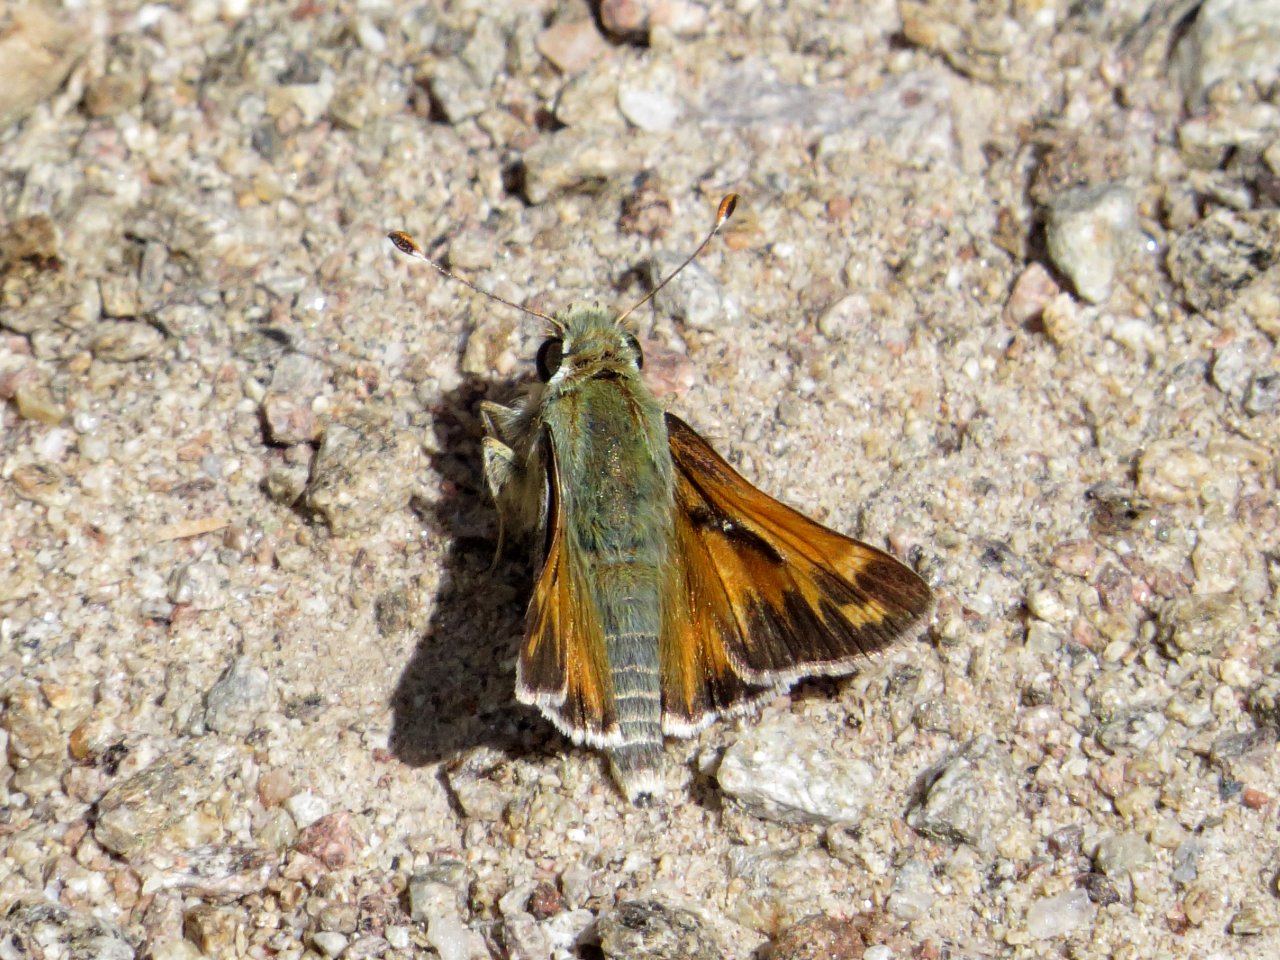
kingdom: Animalia
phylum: Arthropoda
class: Insecta
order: Lepidoptera
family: Hesperiidae
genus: Hesperia
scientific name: Hesperia juba
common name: Juba Skipper
